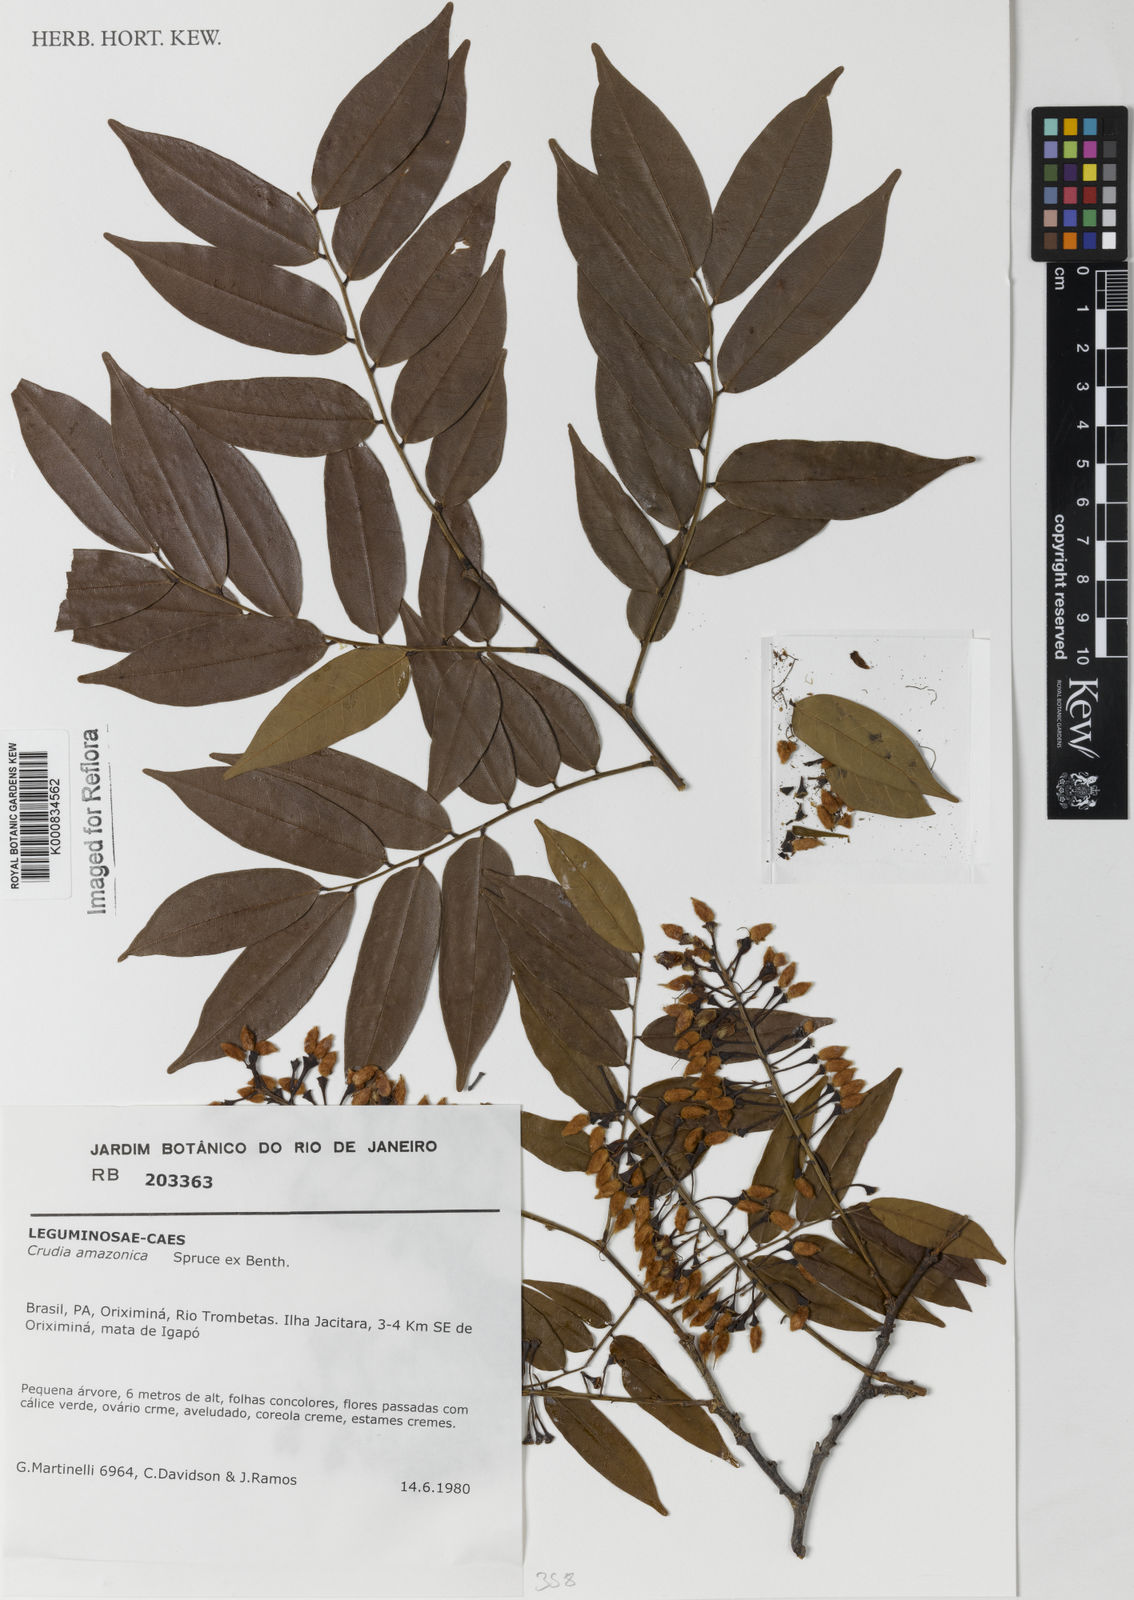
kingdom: Plantae
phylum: Tracheophyta
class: Magnoliopsida
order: Fabales
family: Fabaceae
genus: Crudia
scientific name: Crudia
